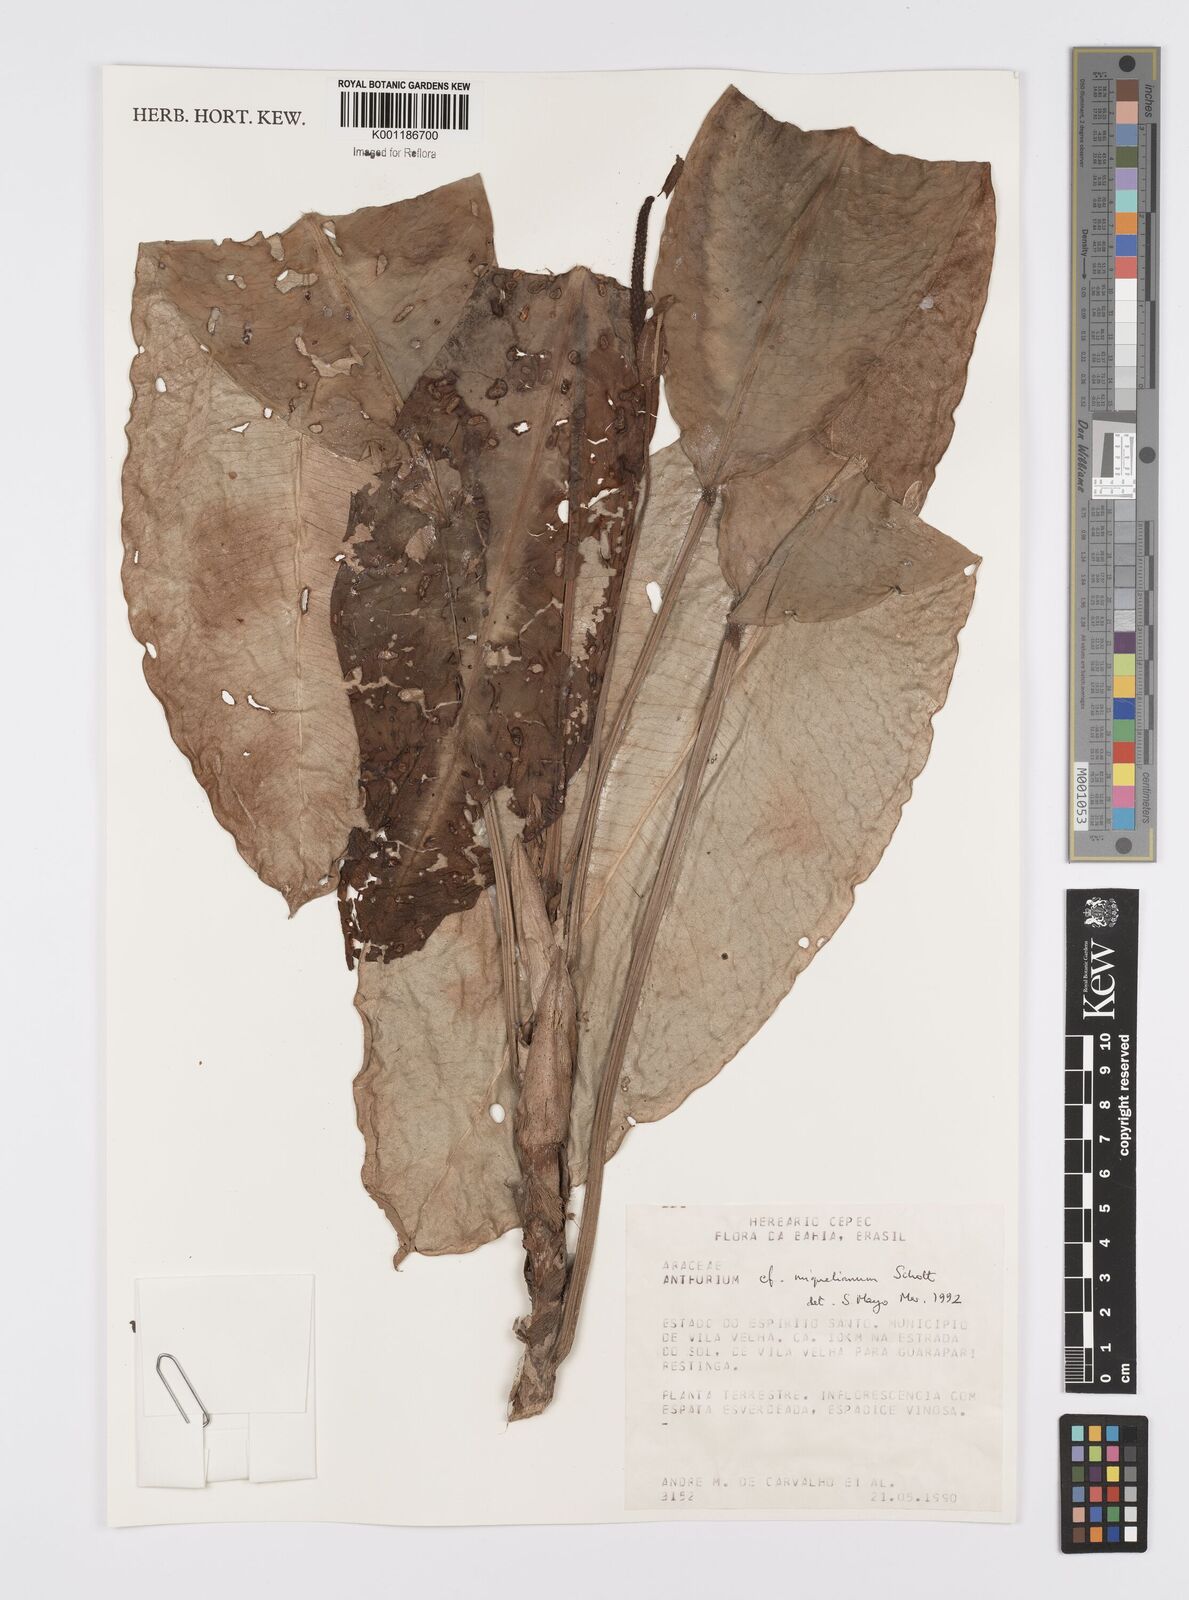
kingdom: Plantae
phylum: Tracheophyta
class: Liliopsida
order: Alismatales
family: Araceae
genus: Anthurium
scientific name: Anthurium parasiticum
